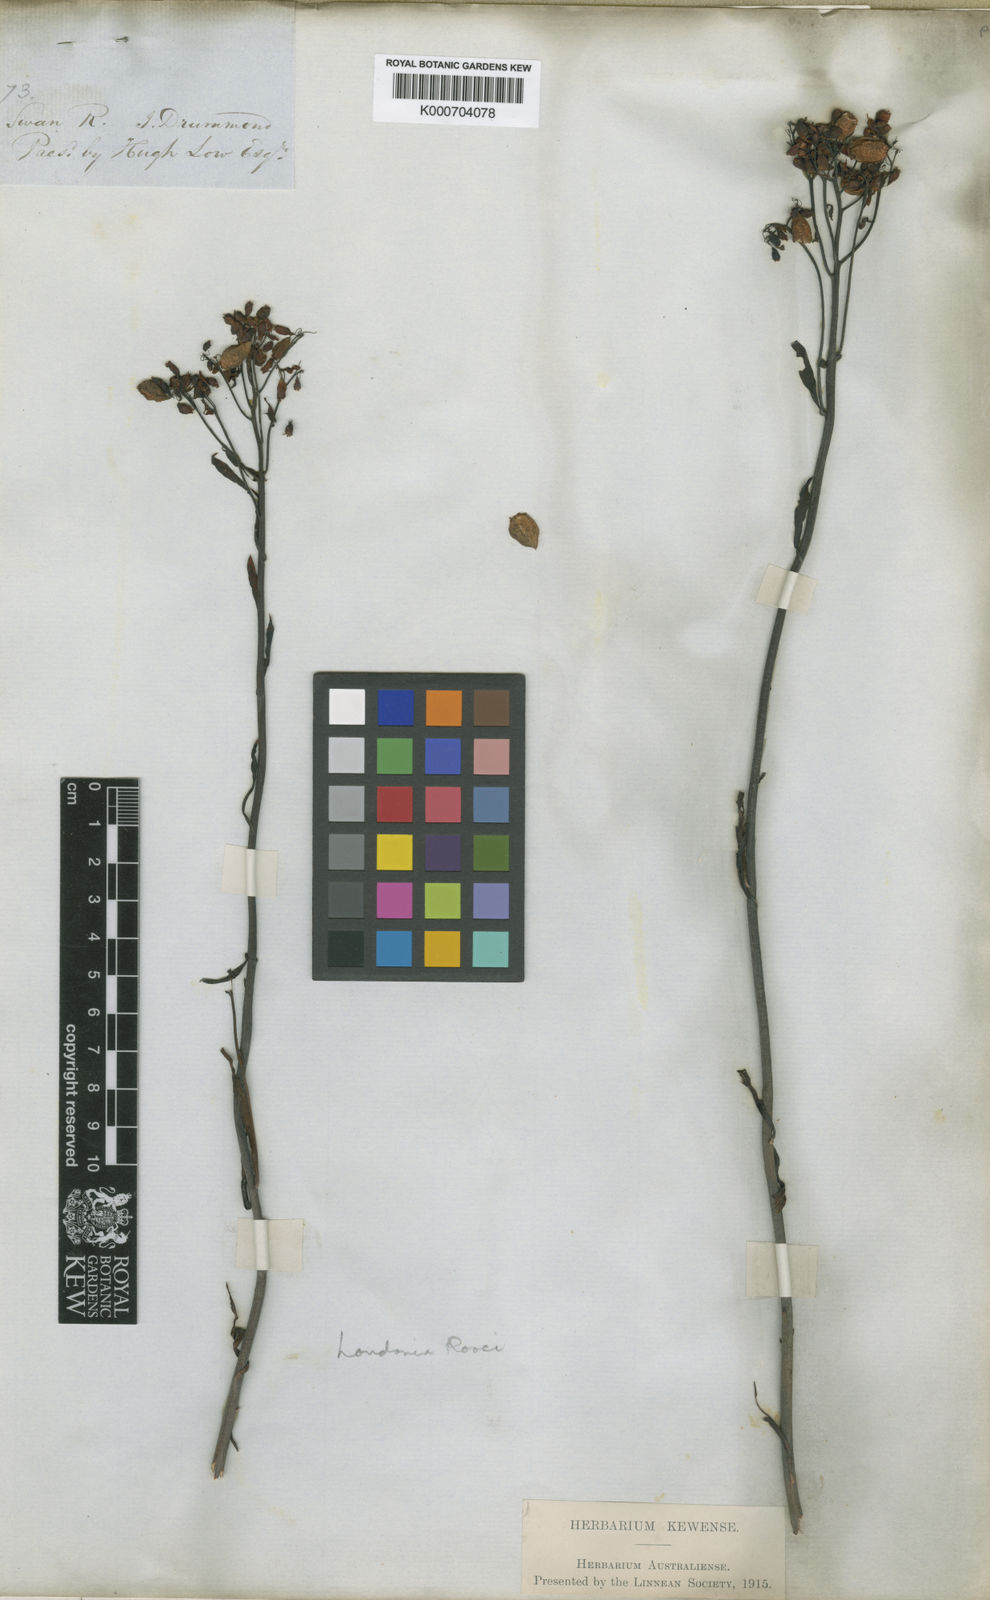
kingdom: Plantae
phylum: Tracheophyta
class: Magnoliopsida
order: Saxifragales
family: Haloragaceae
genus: Glischrocaryon
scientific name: Glischrocaryon flavescens
